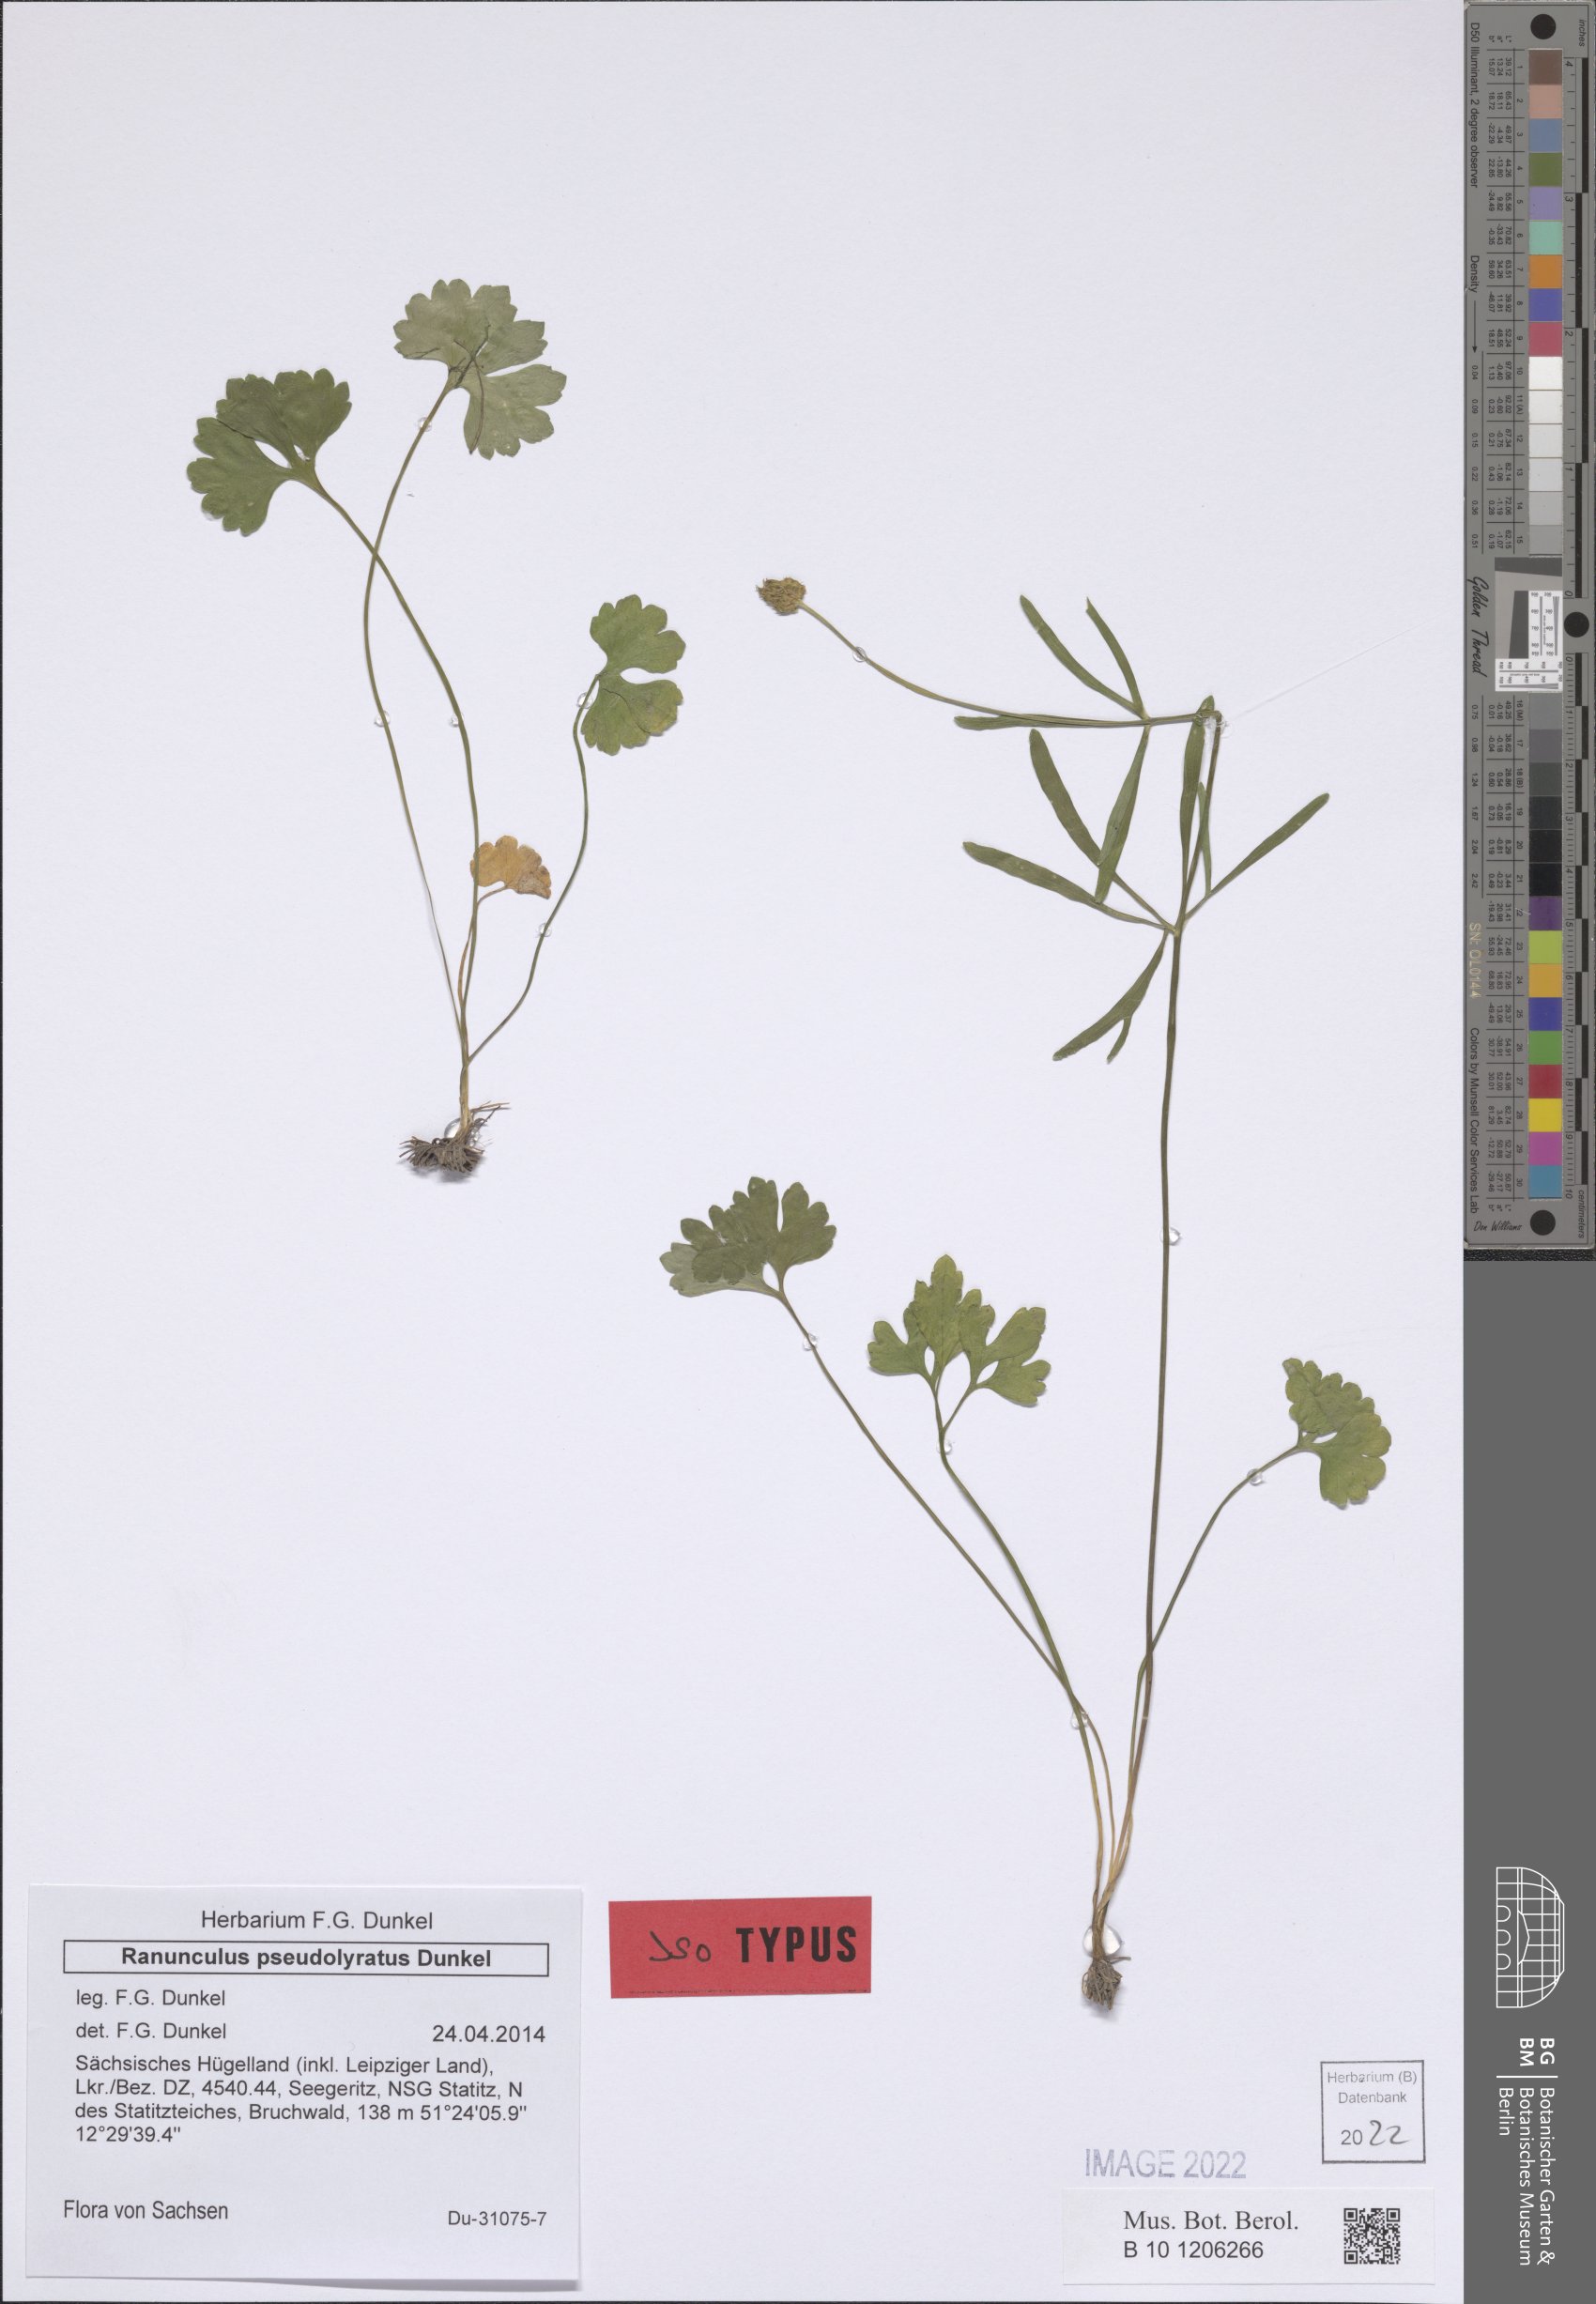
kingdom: Plantae
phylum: Tracheophyta
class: Magnoliopsida
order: Ranunculales
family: Ranunculaceae
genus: Ranunculus
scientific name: Ranunculus pseudolyratus
